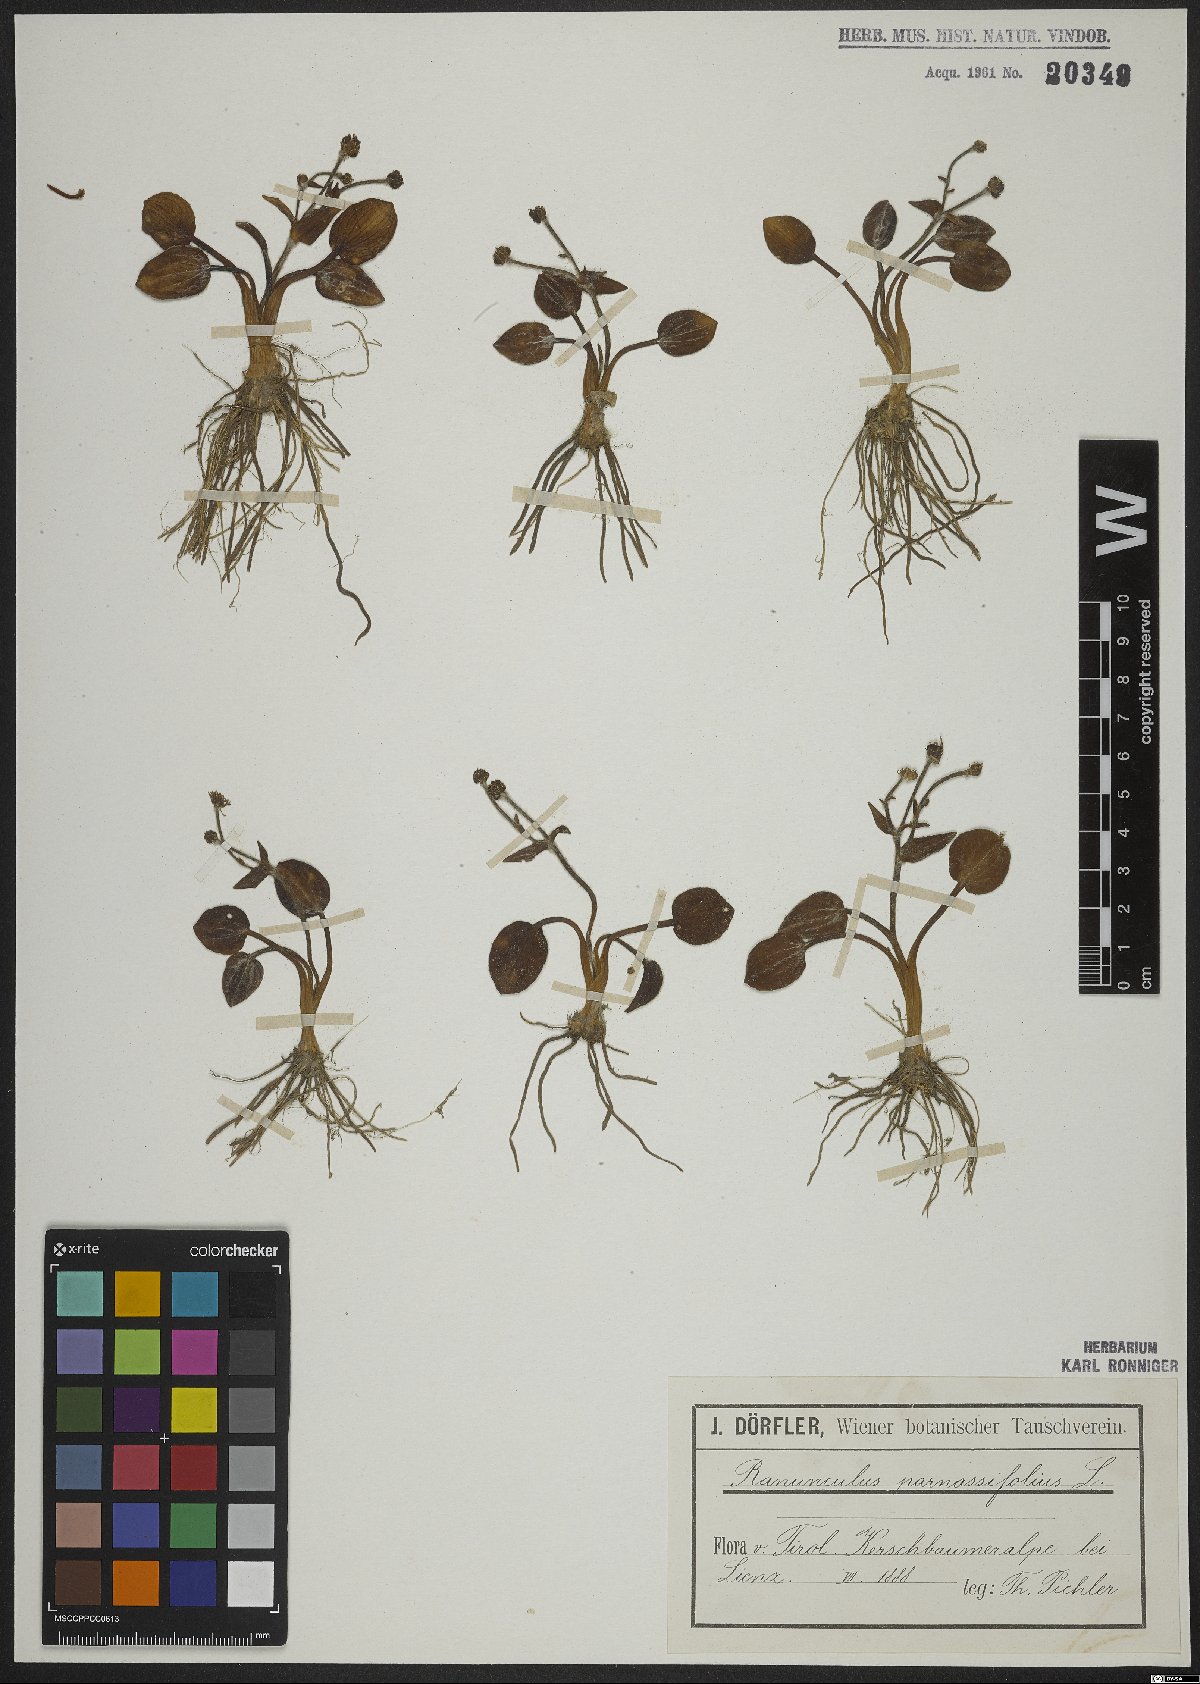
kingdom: Plantae
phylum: Tracheophyta
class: Magnoliopsida
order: Ranunculales
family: Ranunculaceae
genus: Ranunculus
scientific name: Ranunculus parnassiifolius
